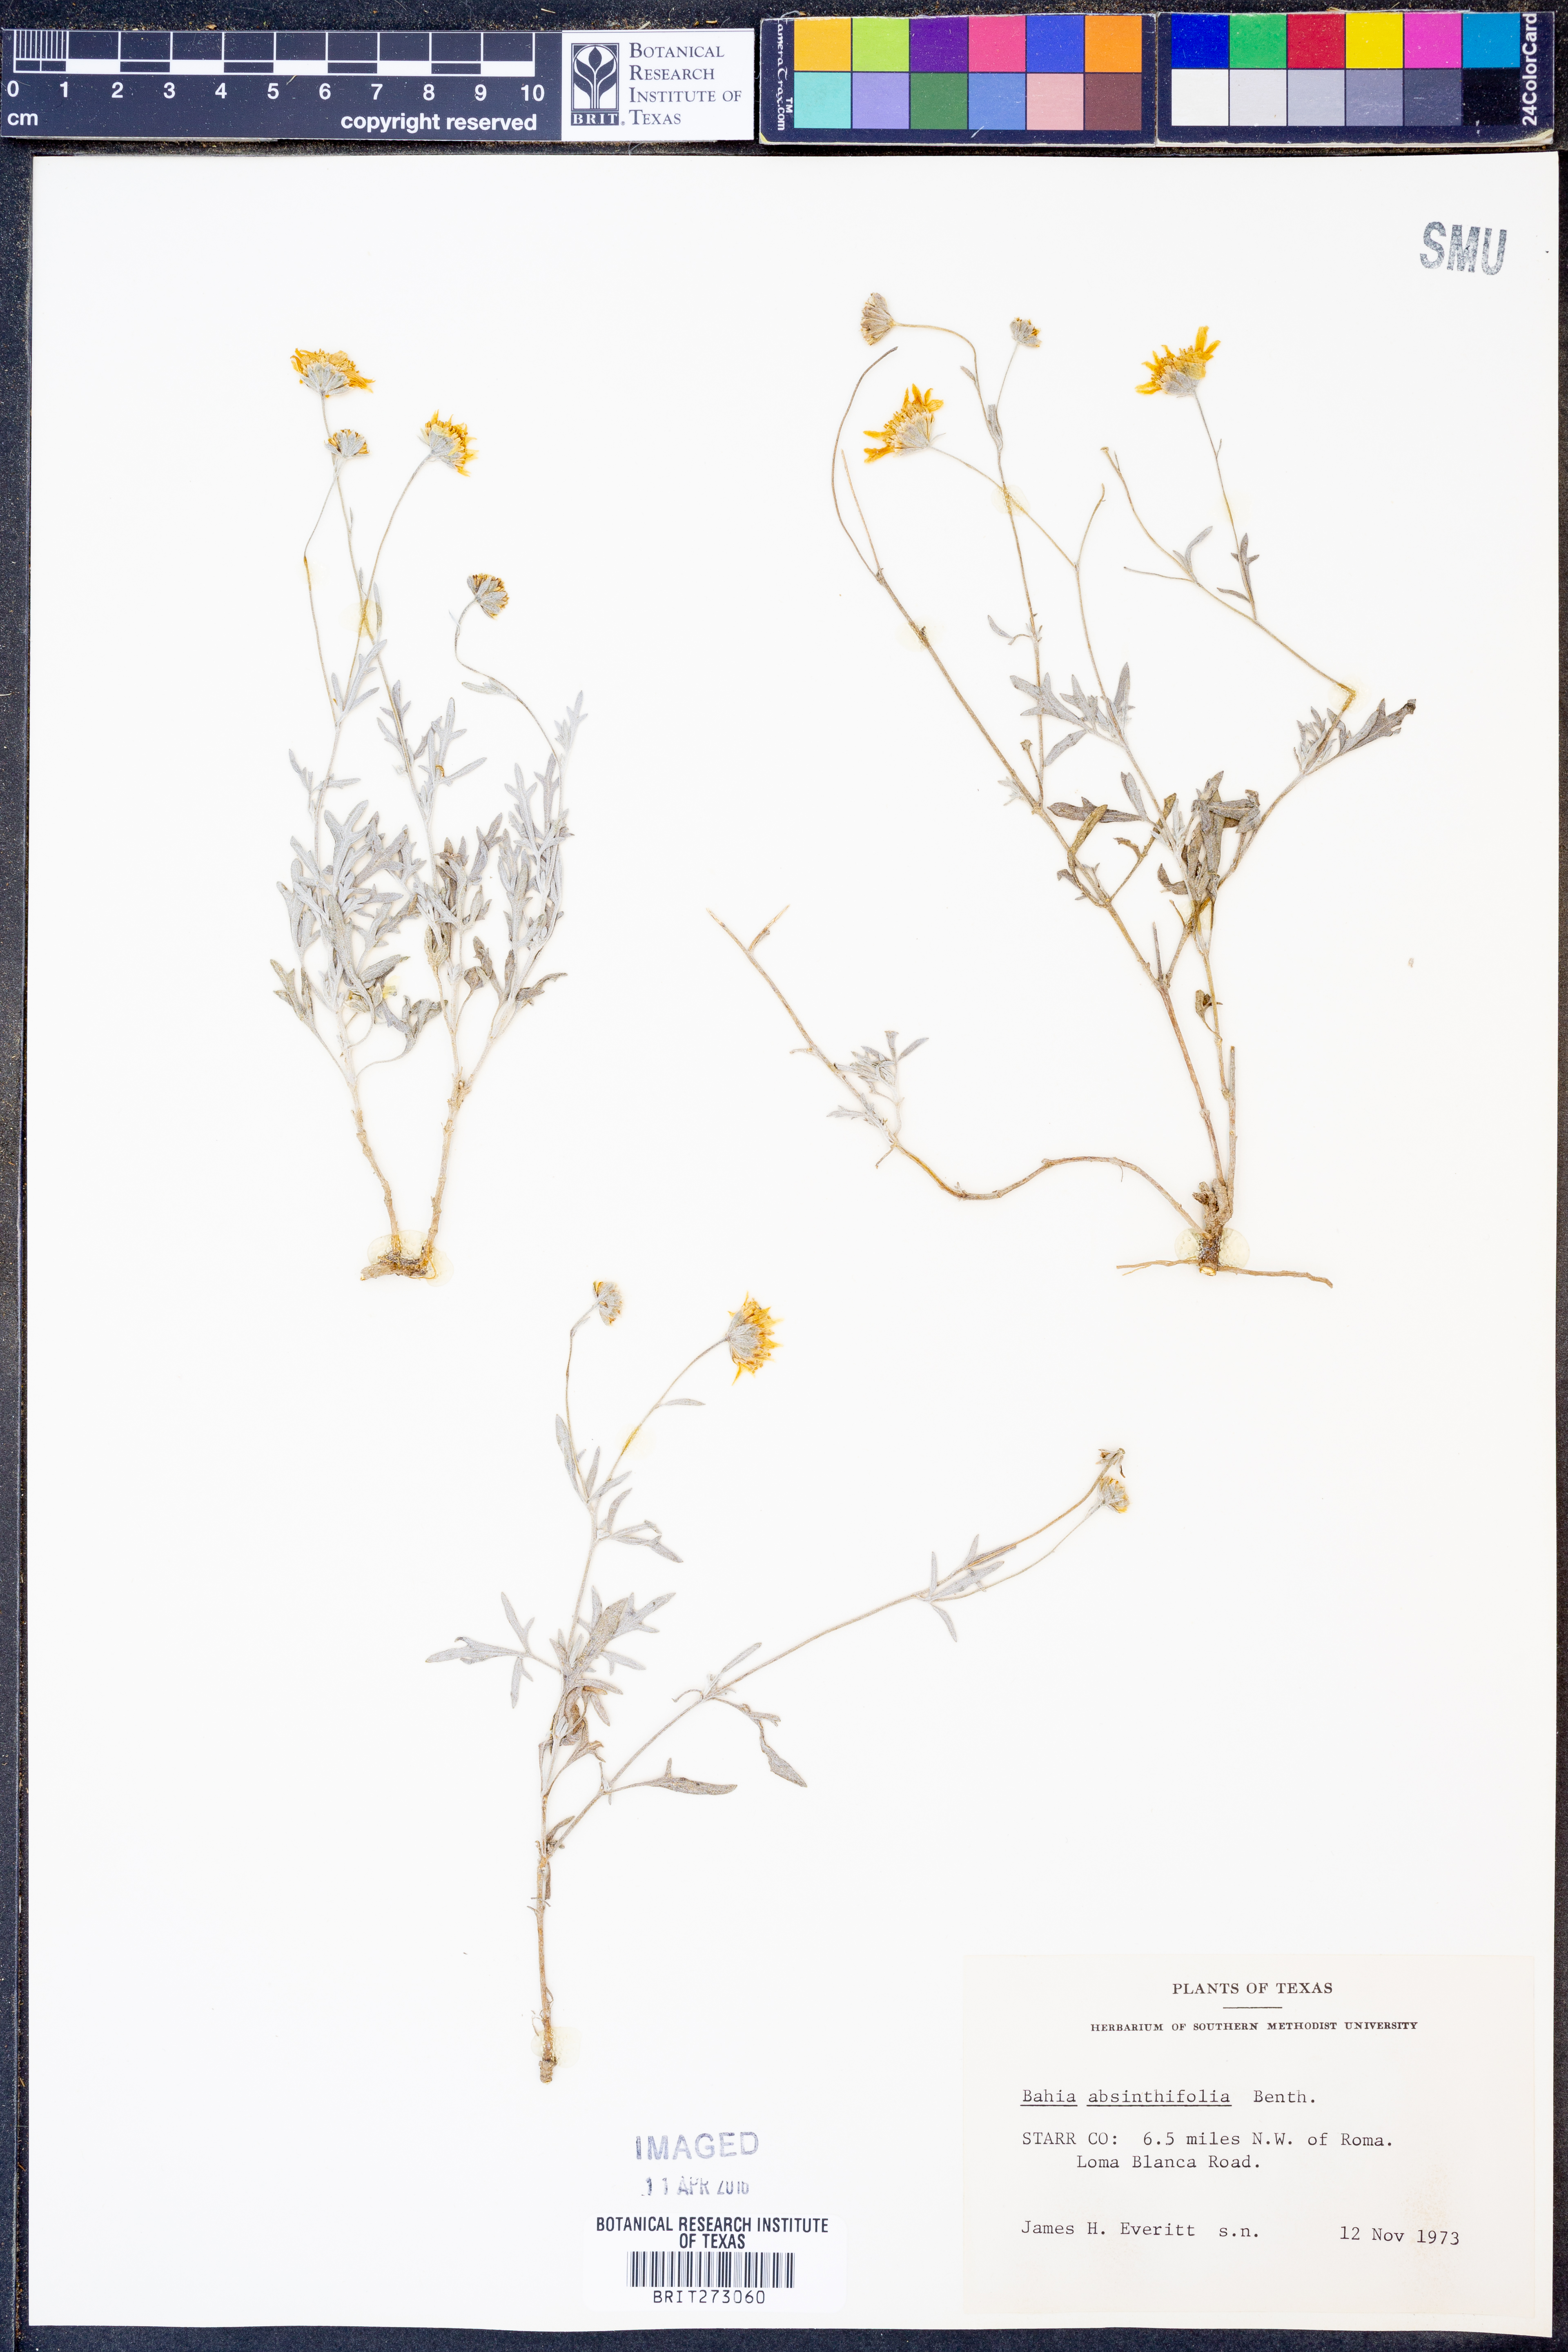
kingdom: Plantae
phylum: Tracheophyta
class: Magnoliopsida
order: Asterales
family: Asteraceae
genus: Picradeniopsis
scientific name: Picradeniopsis absinthifolia
